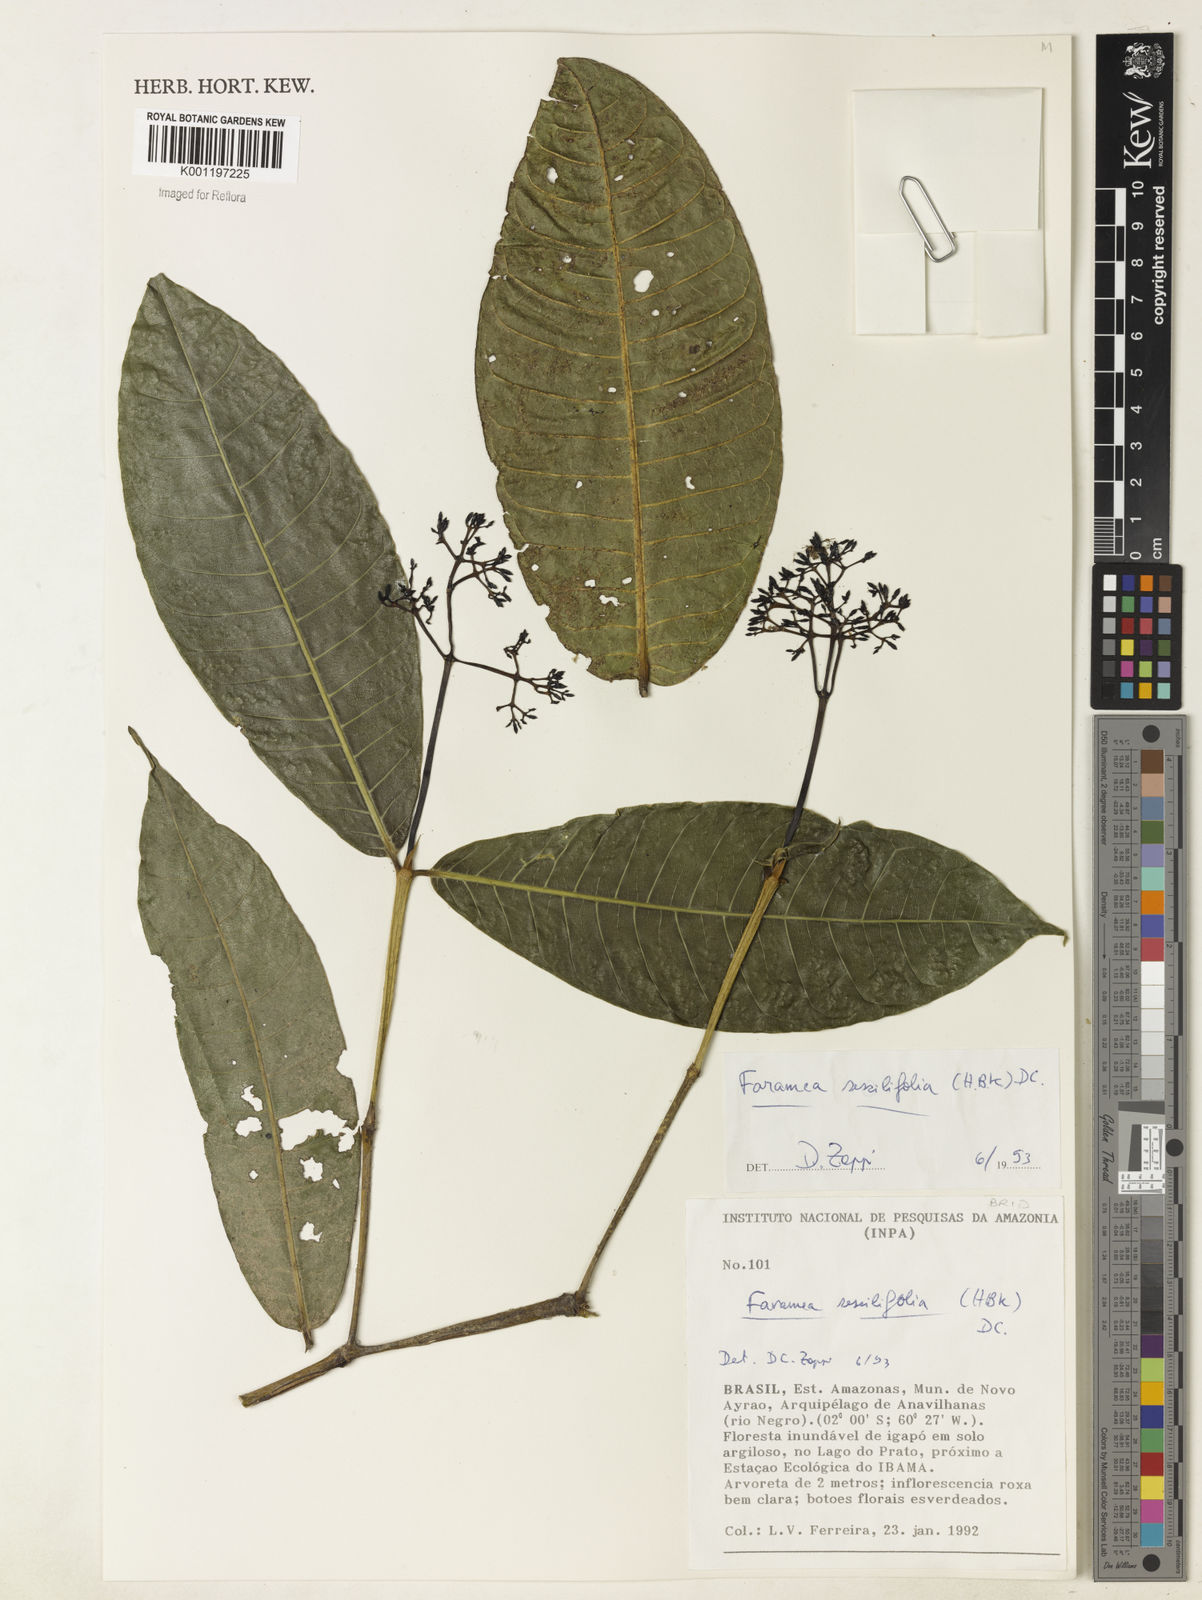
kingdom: Plantae
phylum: Tracheophyta
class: Magnoliopsida
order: Gentianales
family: Rubiaceae
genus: Faramea
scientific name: Faramea sessilifolia
